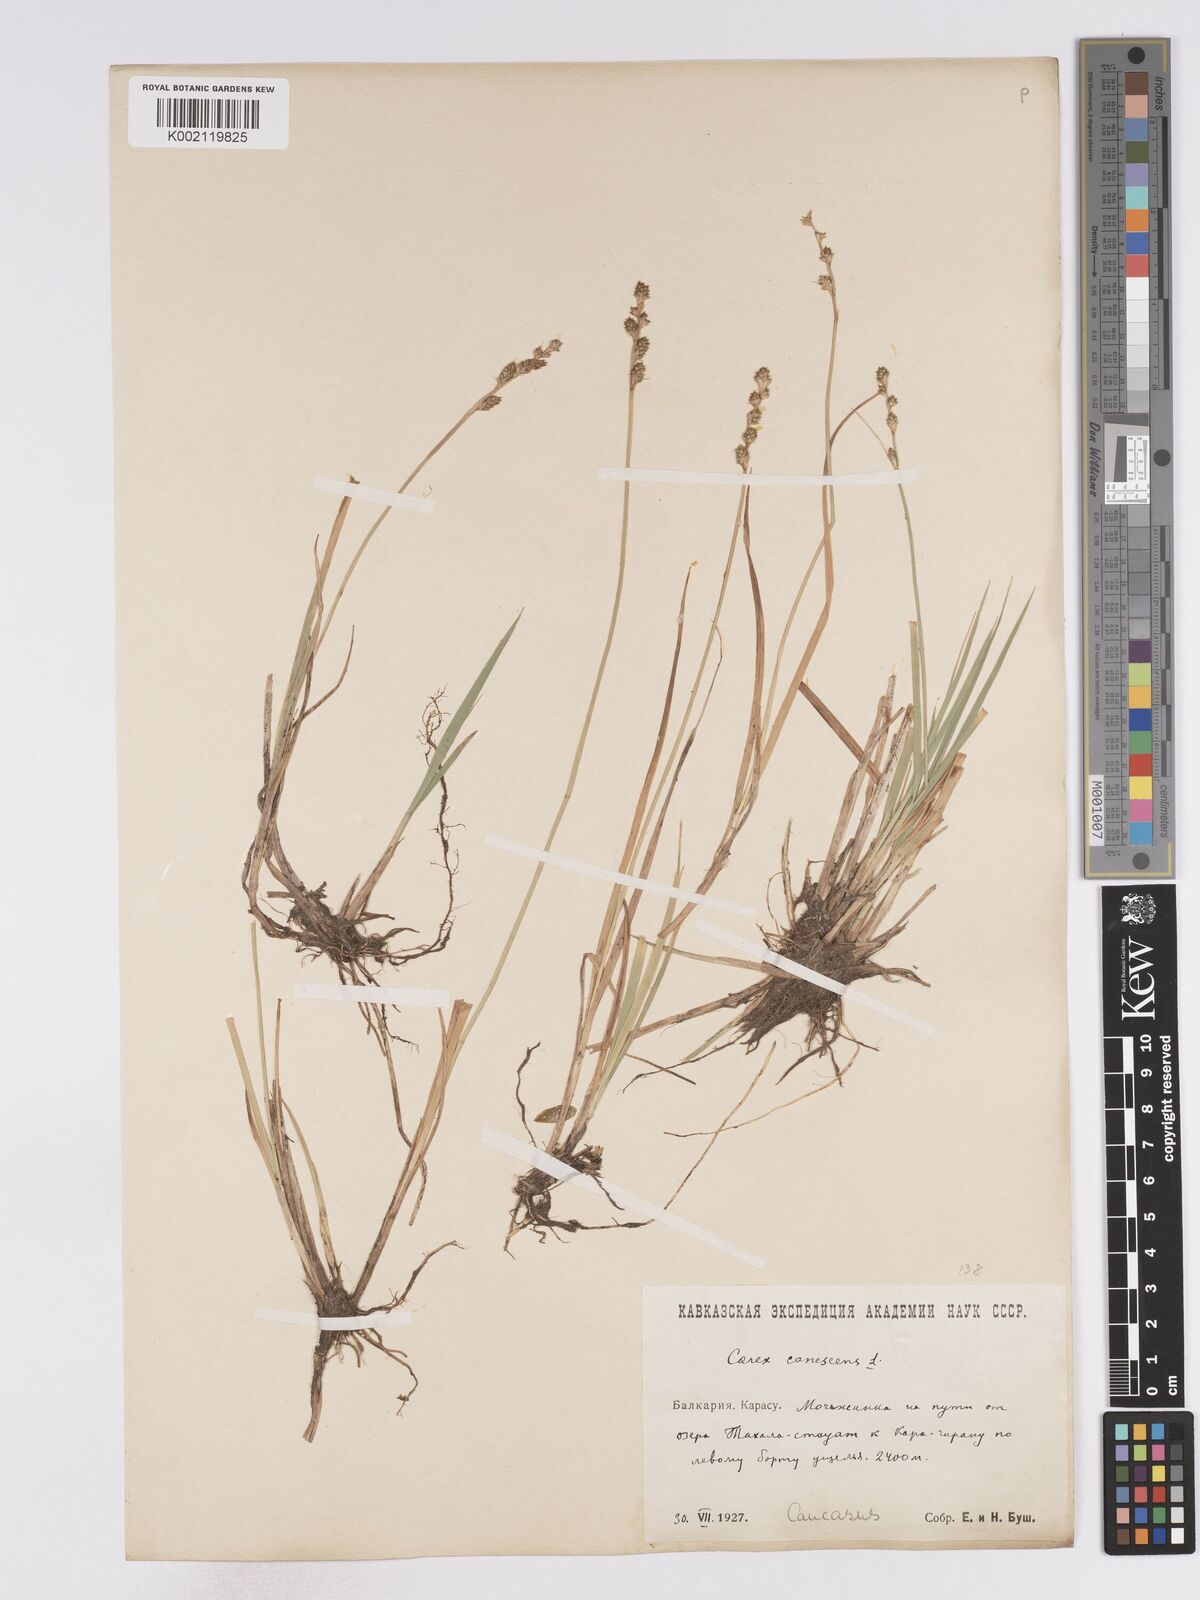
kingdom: Plantae
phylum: Tracheophyta
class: Liliopsida
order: Poales
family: Cyperaceae
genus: Carex
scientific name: Carex curta
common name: White sedge
